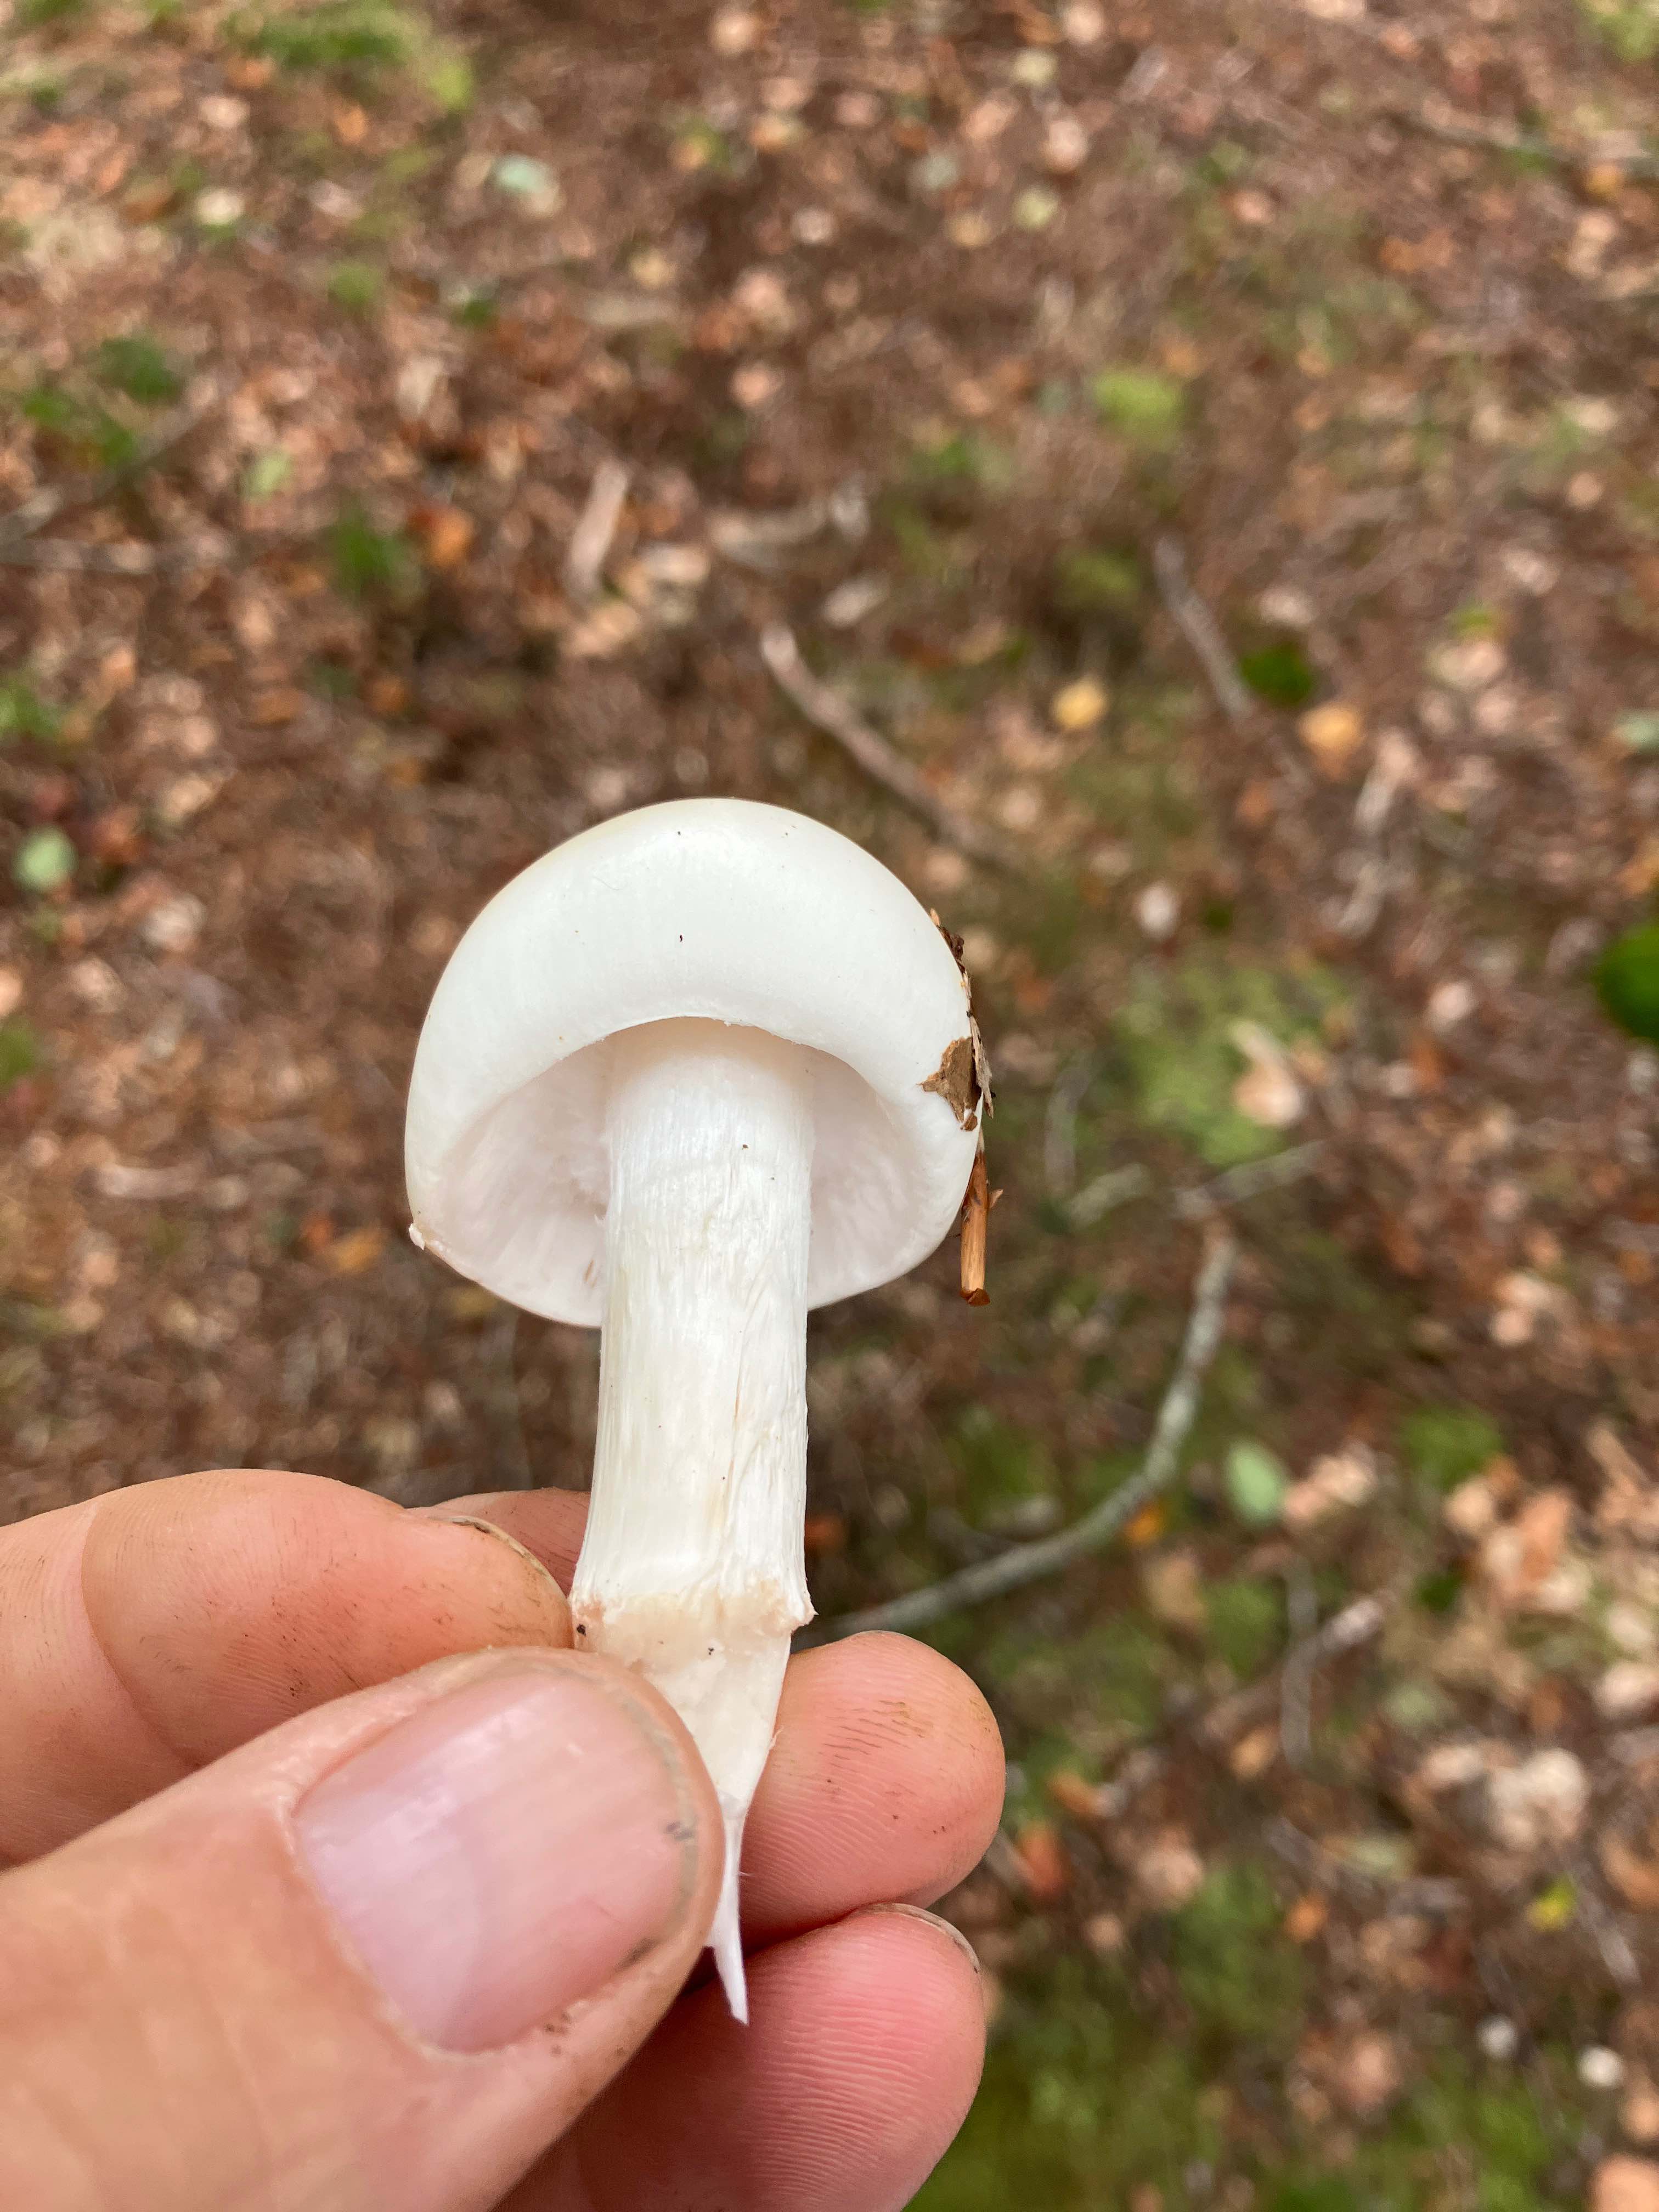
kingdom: Fungi
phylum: Basidiomycota
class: Agaricomycetes
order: Agaricales
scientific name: Agaricales
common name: champignonordenen
